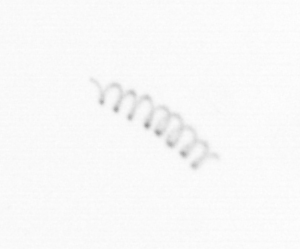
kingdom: Chromista
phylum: Ochrophyta
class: Bacillariophyceae
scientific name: Bacillariophyceae
